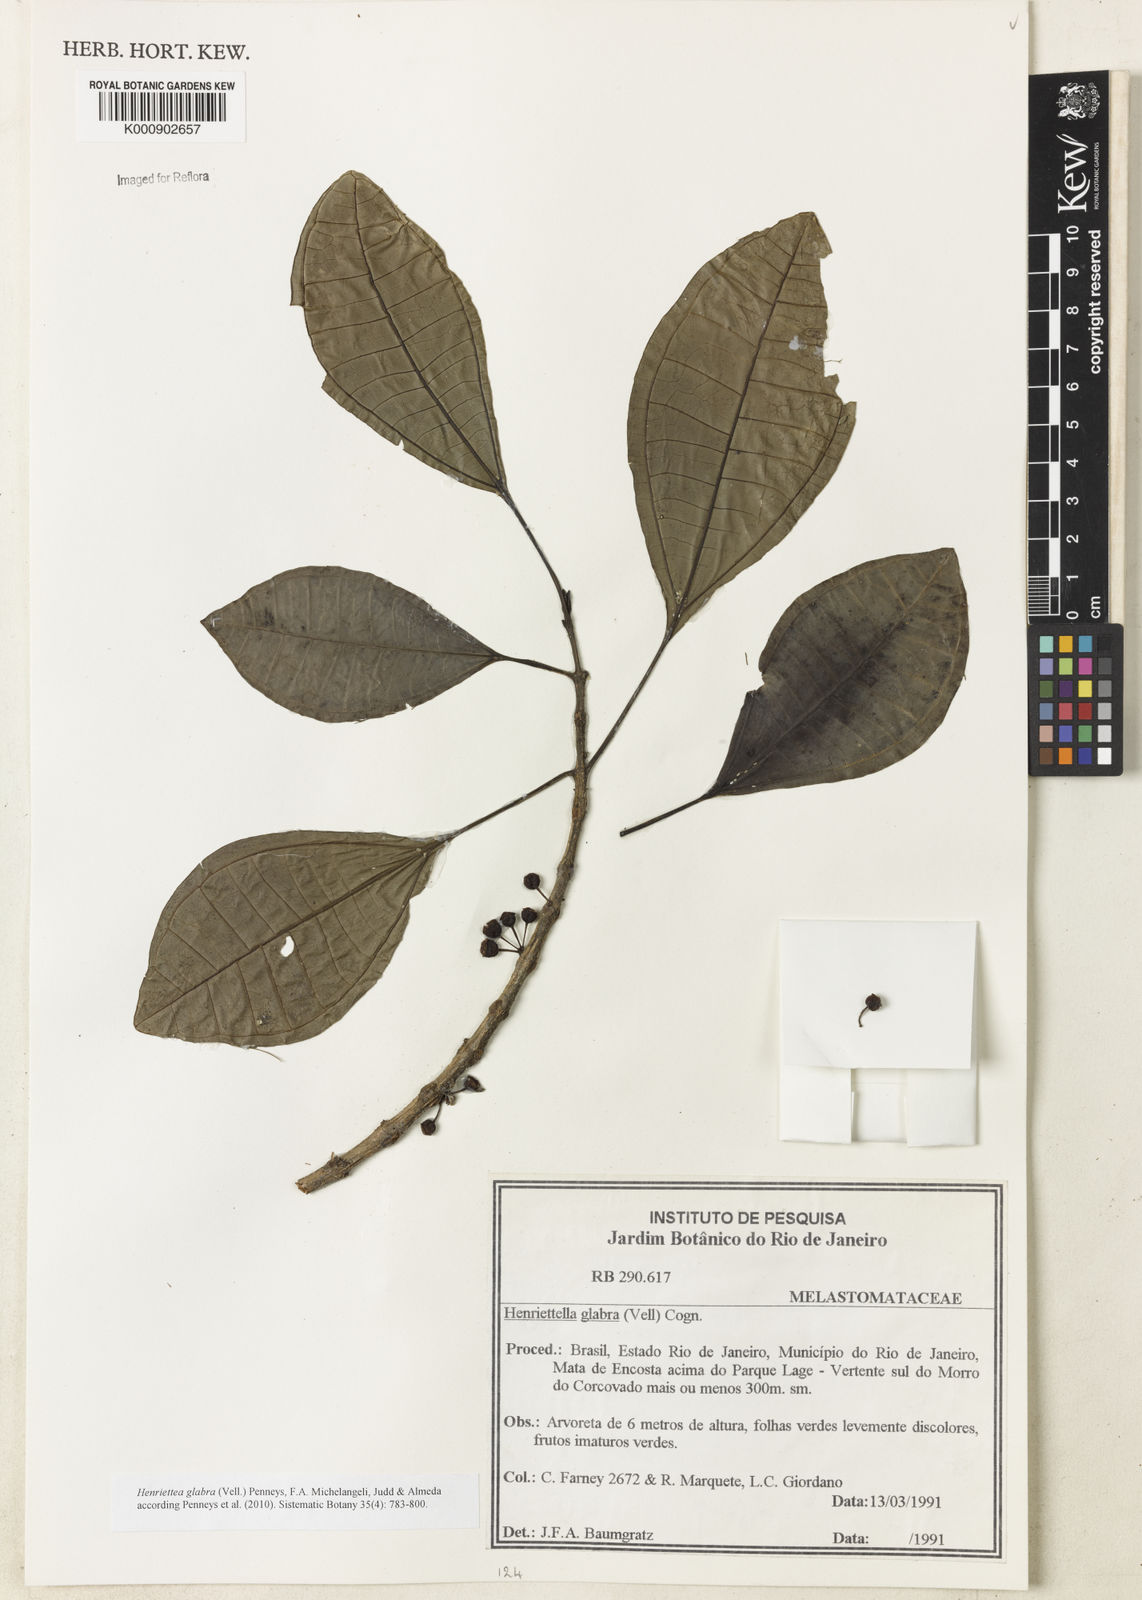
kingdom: Plantae
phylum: Tracheophyta
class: Magnoliopsida
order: Myrtales
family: Melastomataceae
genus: Henriettea
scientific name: Henriettea glabra
